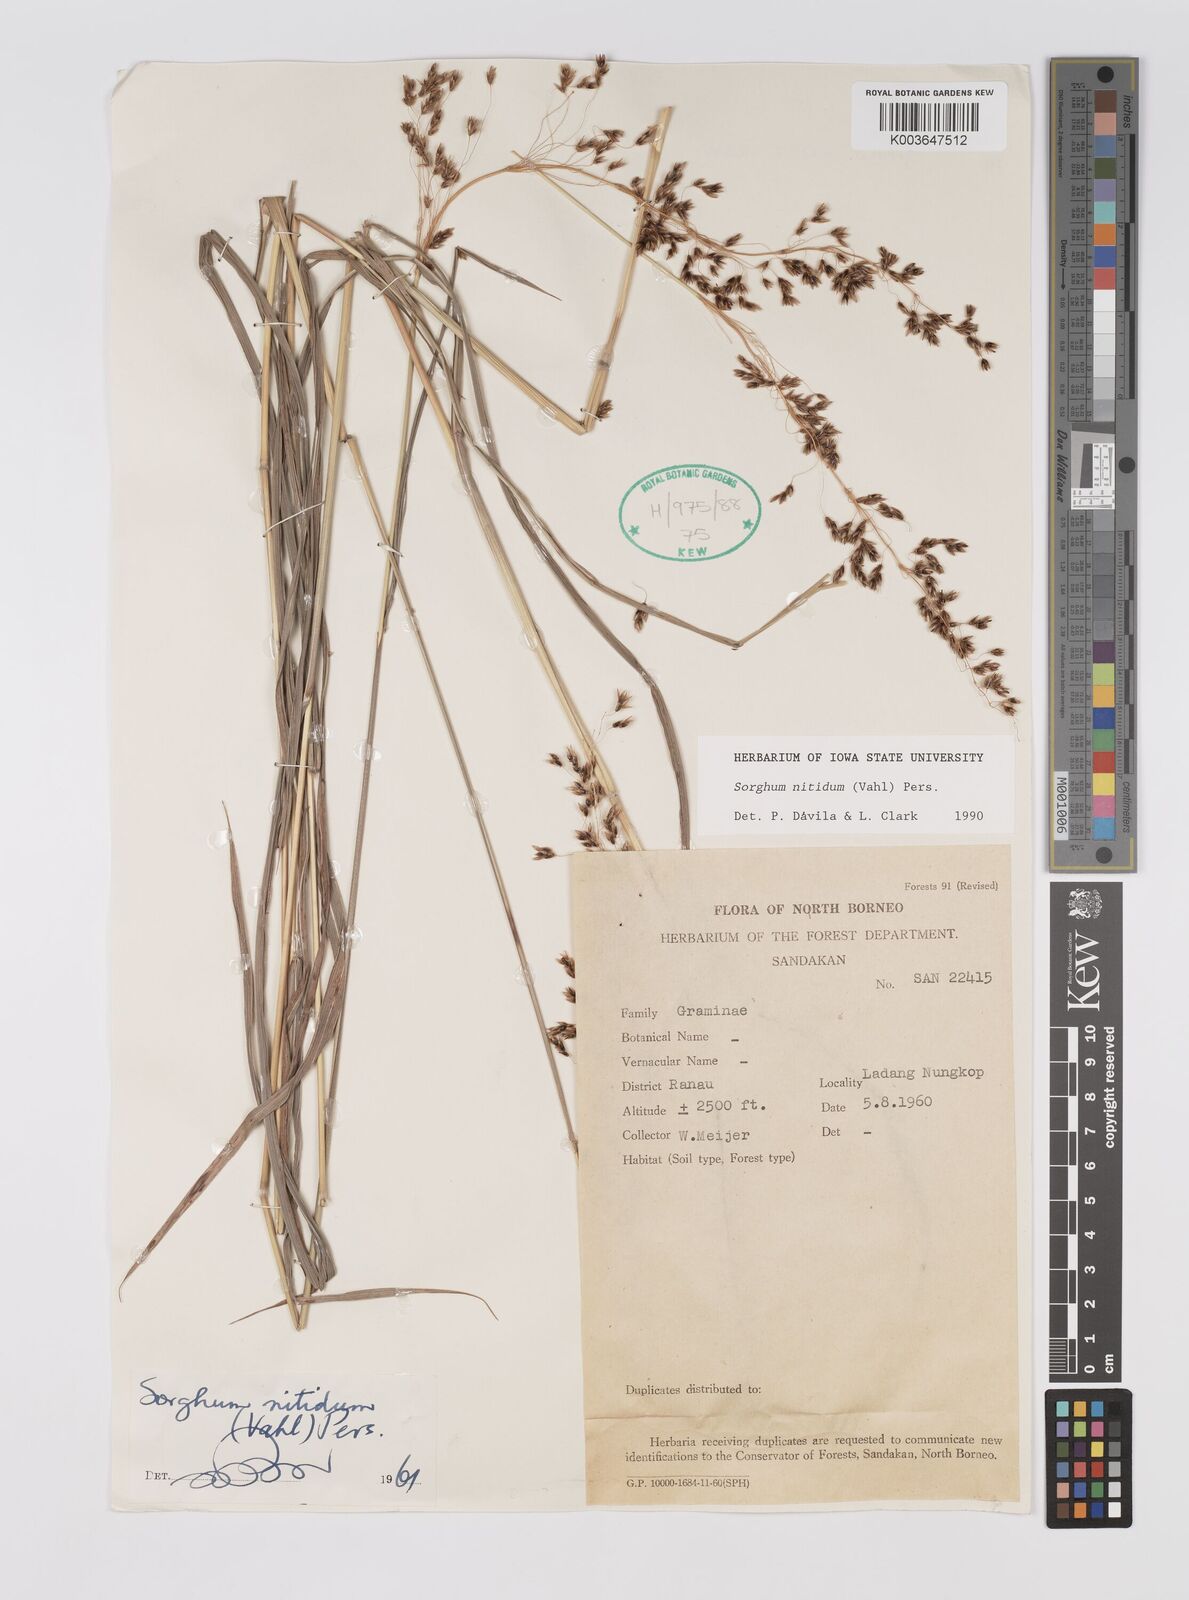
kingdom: Plantae
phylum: Tracheophyta
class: Liliopsida
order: Poales
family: Poaceae
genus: Sorghum
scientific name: Sorghum nitidum
